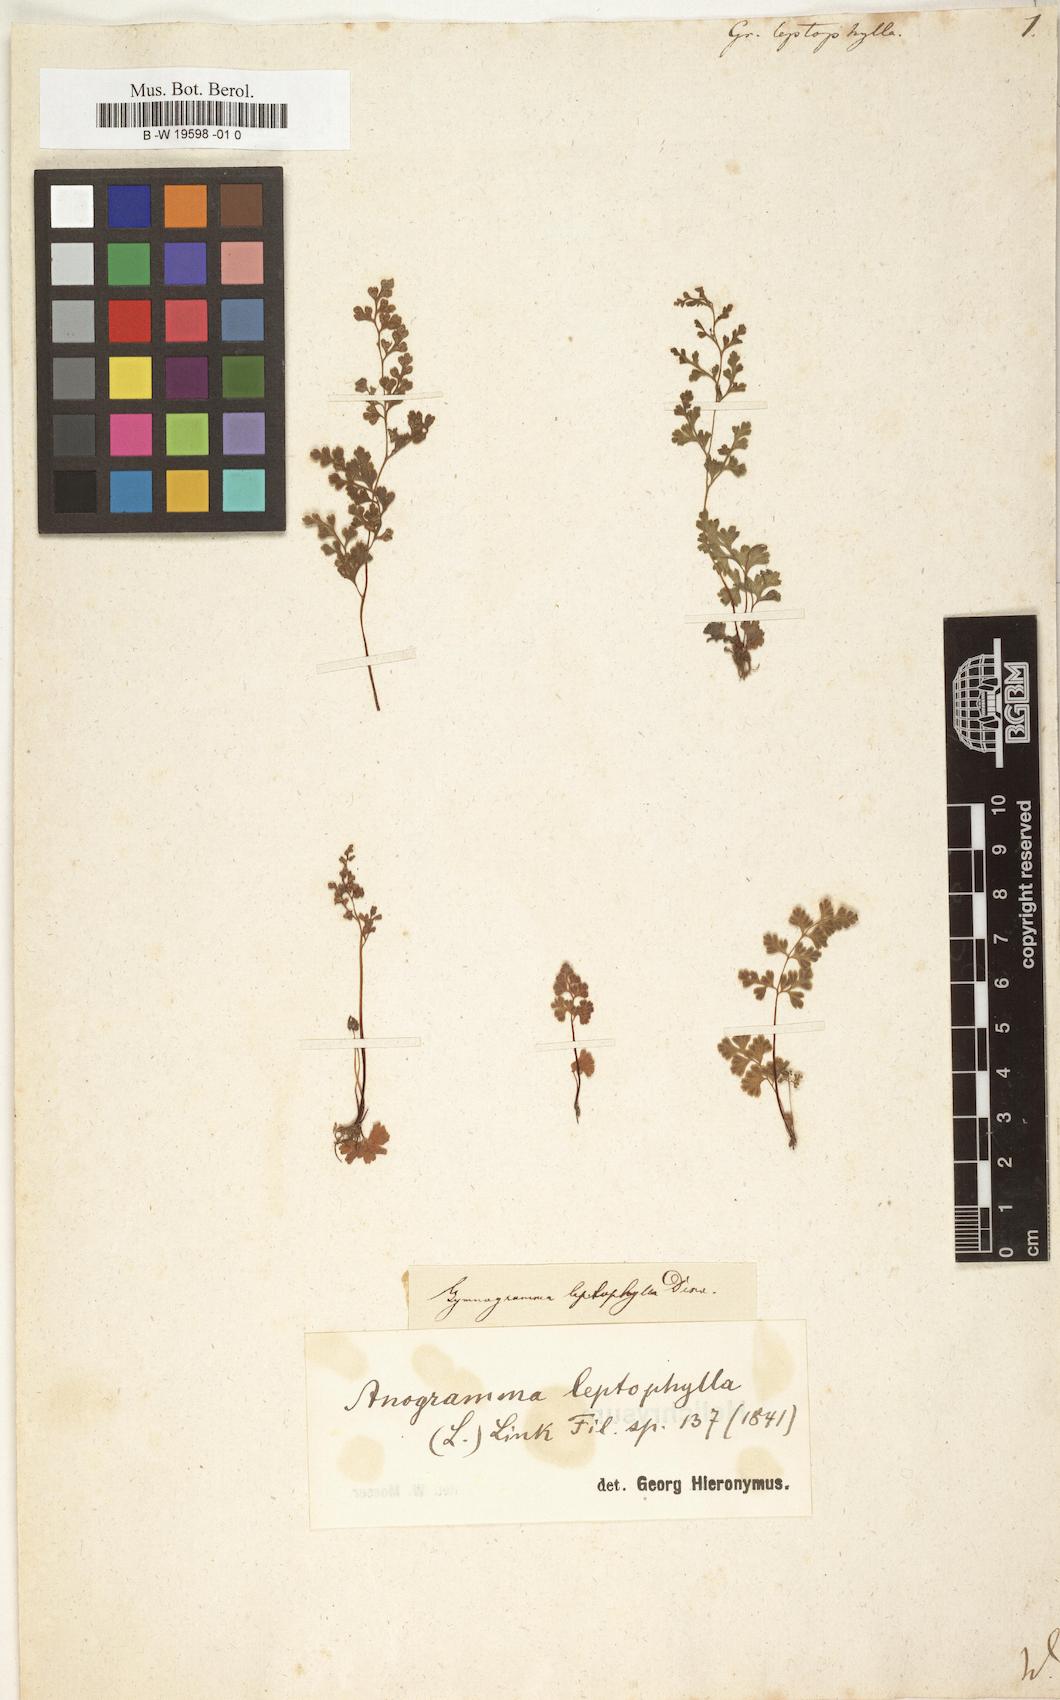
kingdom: Plantae
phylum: Tracheophyta
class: Polypodiopsida
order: Polypodiales
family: Pteridaceae
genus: Anogramma
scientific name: Anogramma leptophylla
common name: Jersey fern
